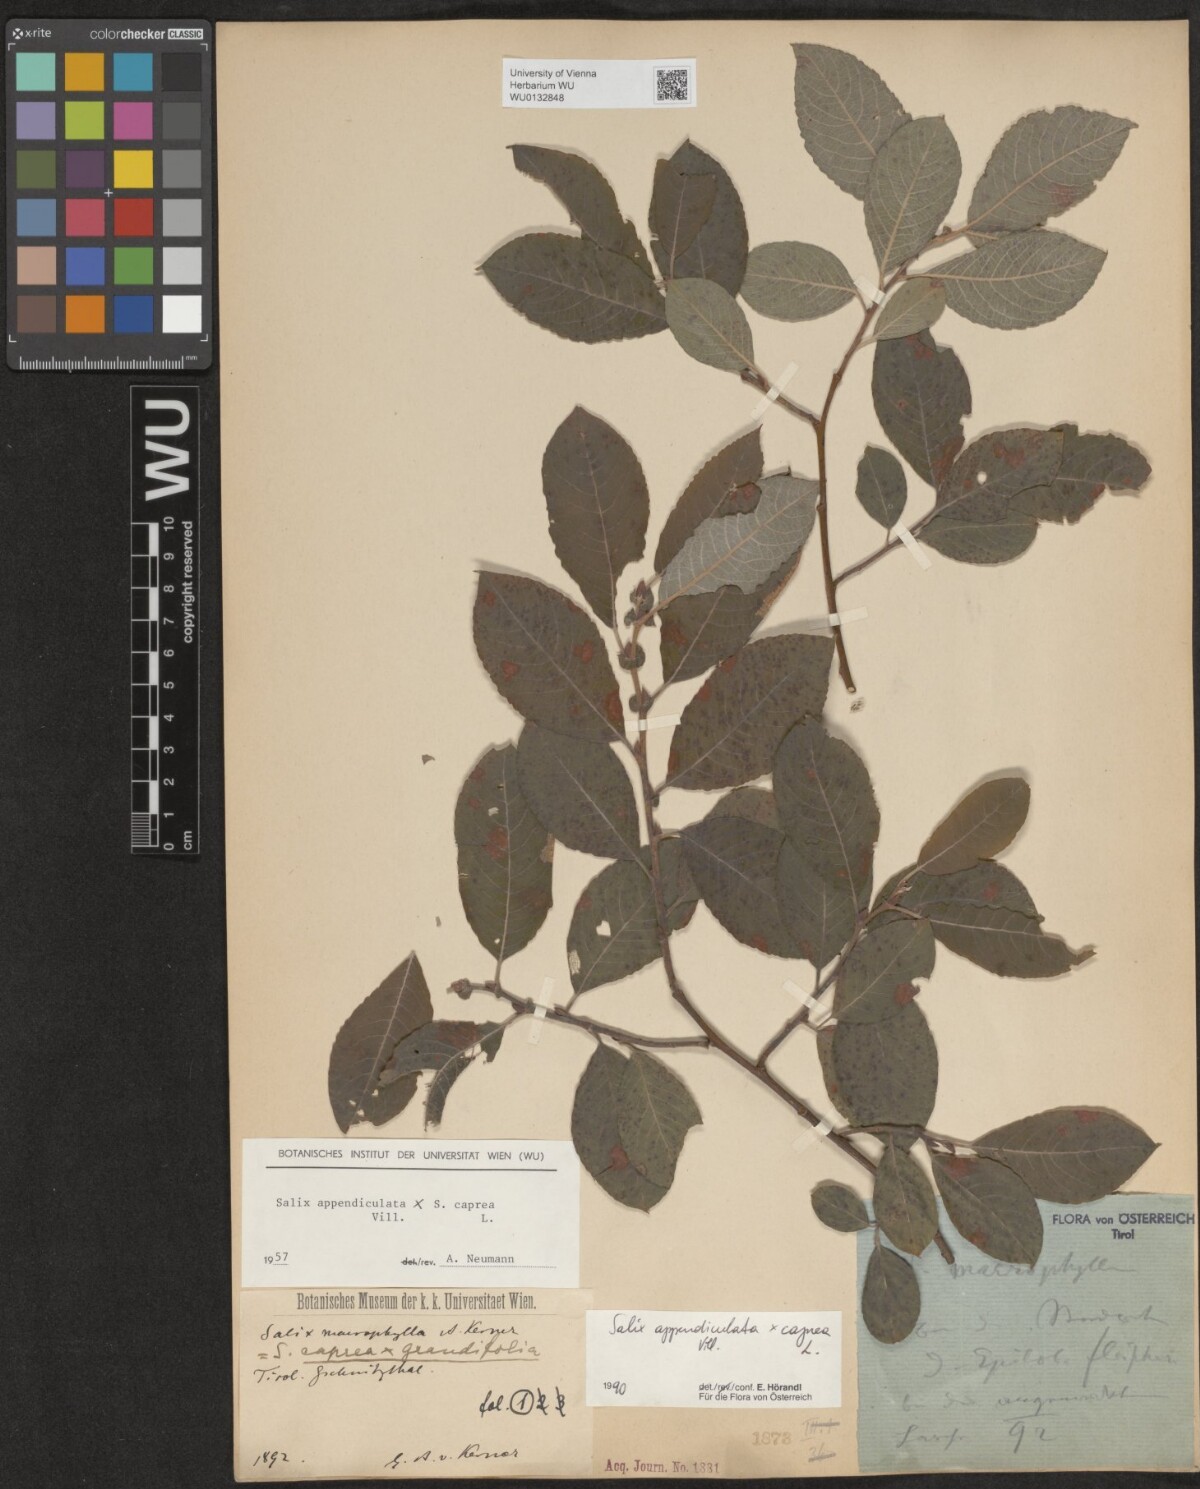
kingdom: Plantae
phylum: Tracheophyta
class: Magnoliopsida
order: Malpighiales
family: Salicaceae
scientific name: Salicaceae
